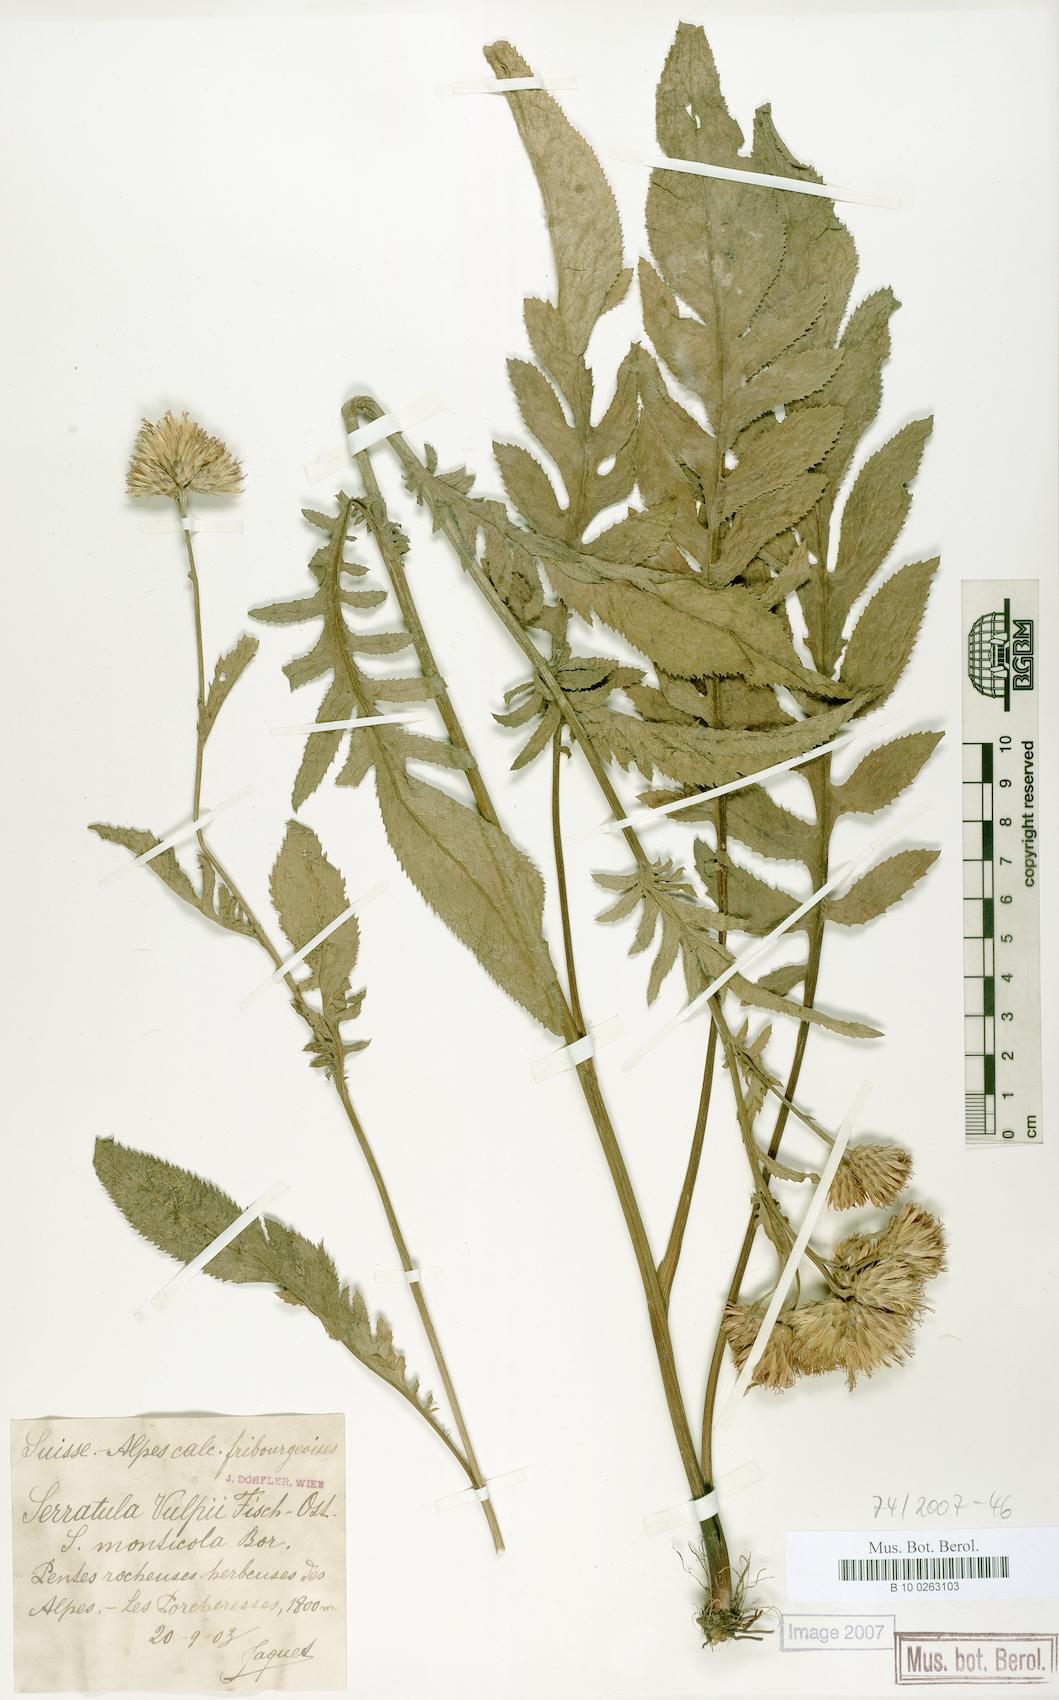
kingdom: Plantae
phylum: Tracheophyta
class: Magnoliopsida
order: Asterales
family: Asteraceae
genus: Serratula
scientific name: Serratula tinctoria
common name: Saw-wort
